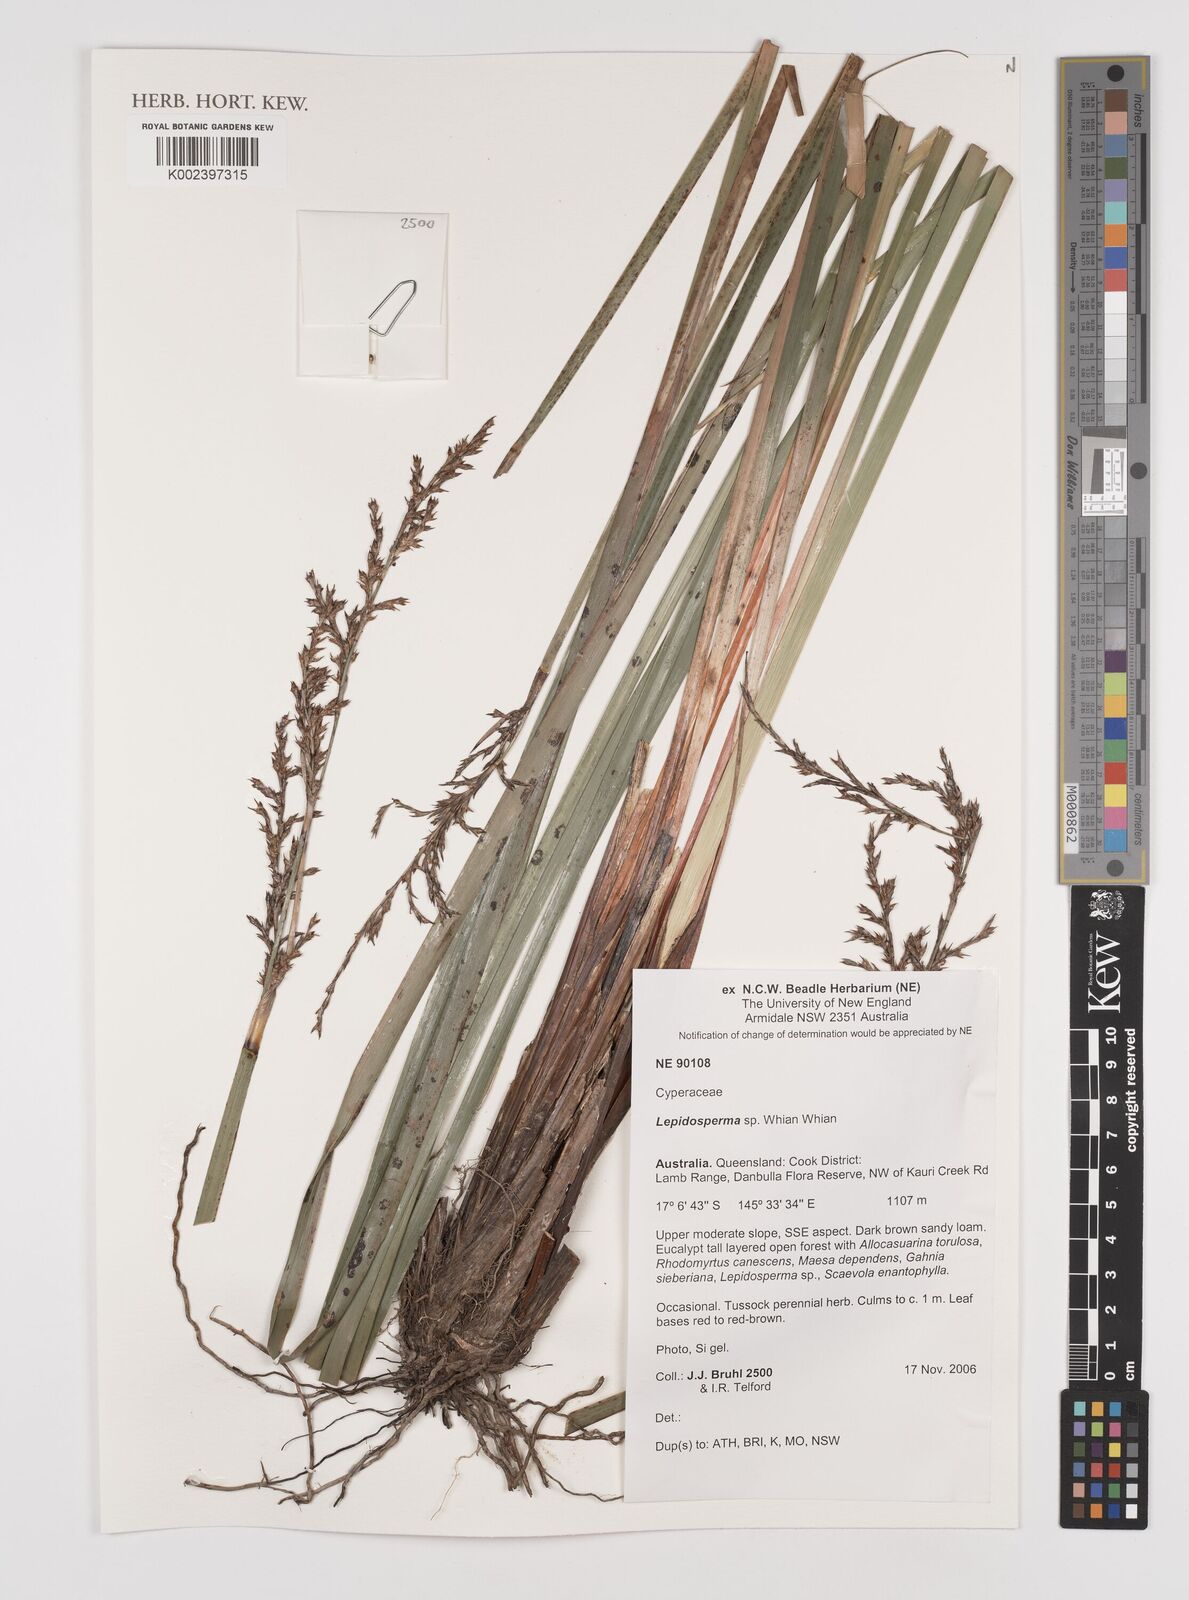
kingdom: Plantae
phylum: Tracheophyta
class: Liliopsida
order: Poales
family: Cyperaceae
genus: Lepidosperma
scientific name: Lepidosperma
